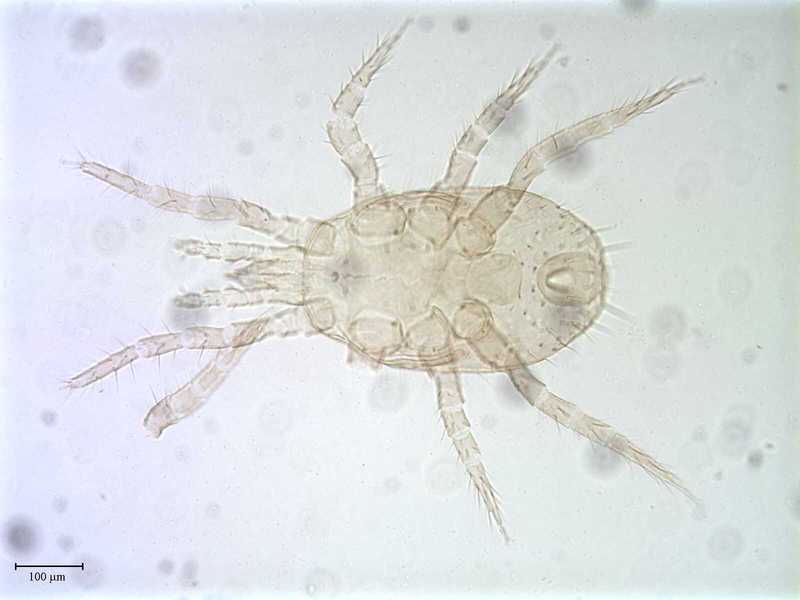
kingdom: Animalia
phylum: Arthropoda
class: Arachnida
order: Mesostigmata
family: Melicharidae
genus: Proctolaelaps
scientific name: Proctolaelaps hystrix
